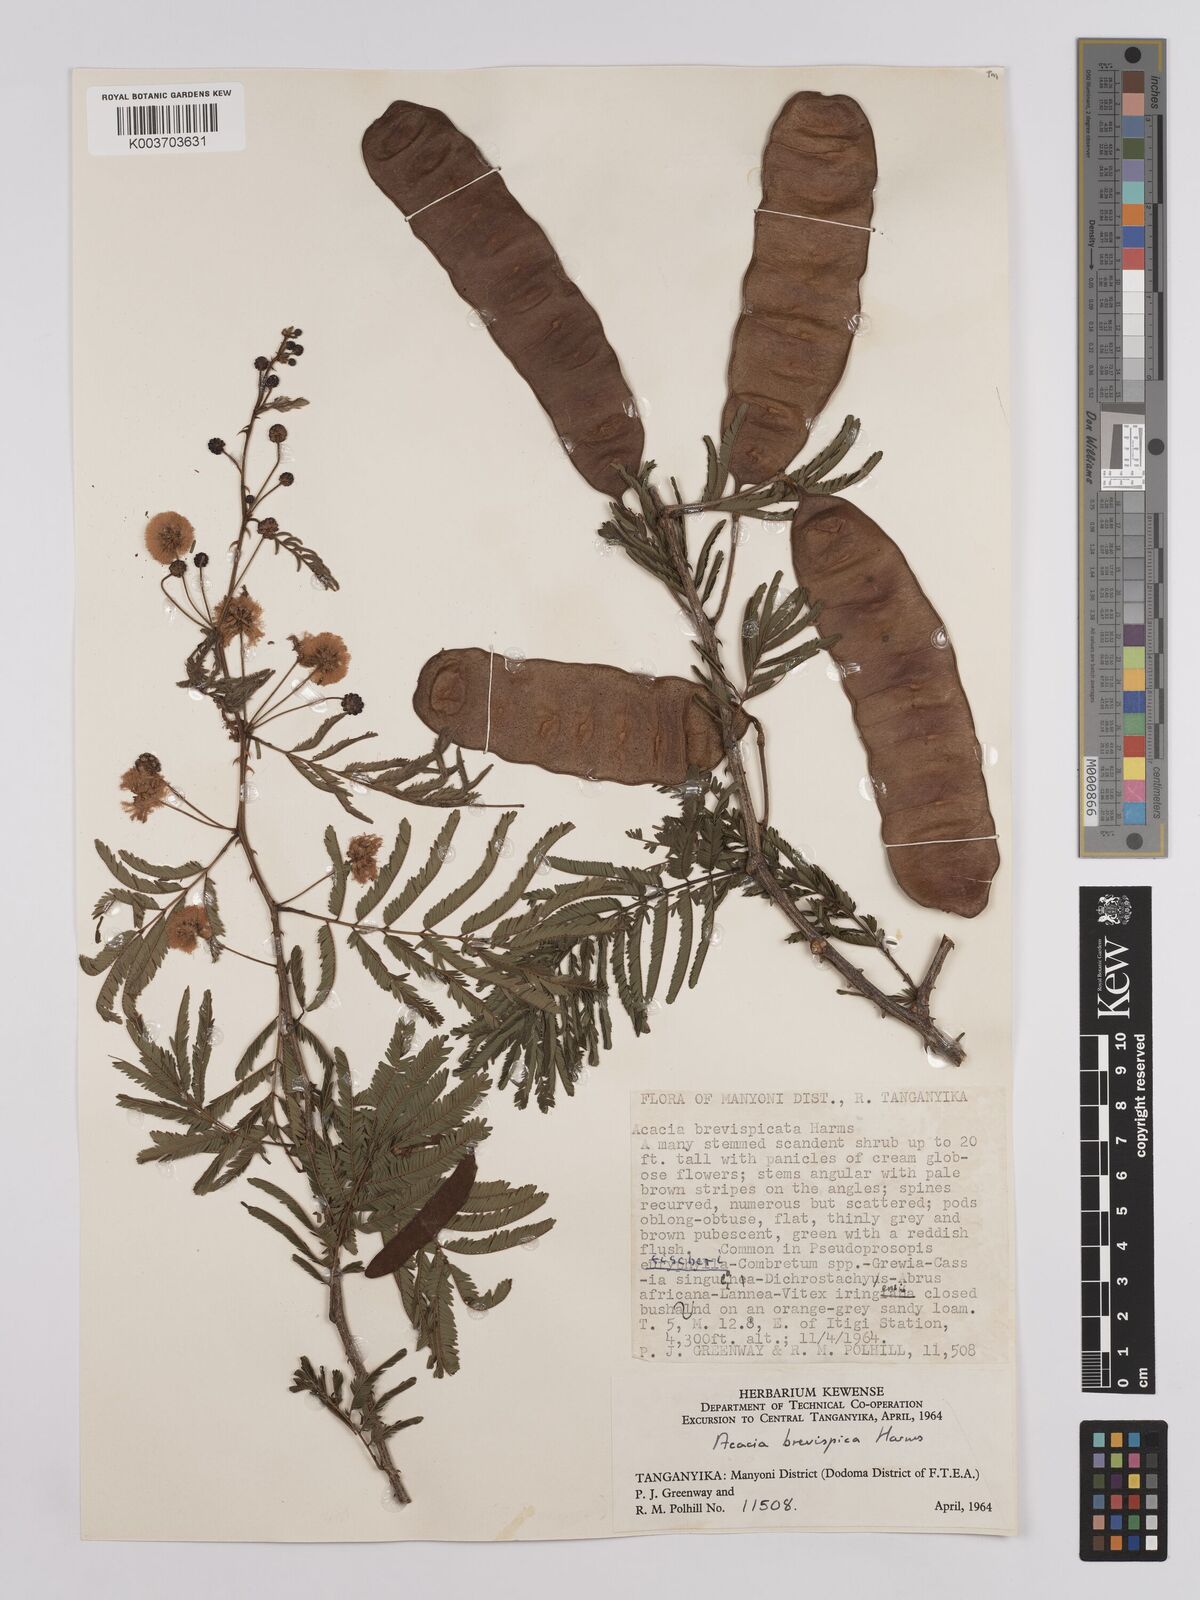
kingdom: Plantae
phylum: Tracheophyta
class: Magnoliopsida
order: Fabales
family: Fabaceae
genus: Senegalia
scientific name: Senegalia brevispica
